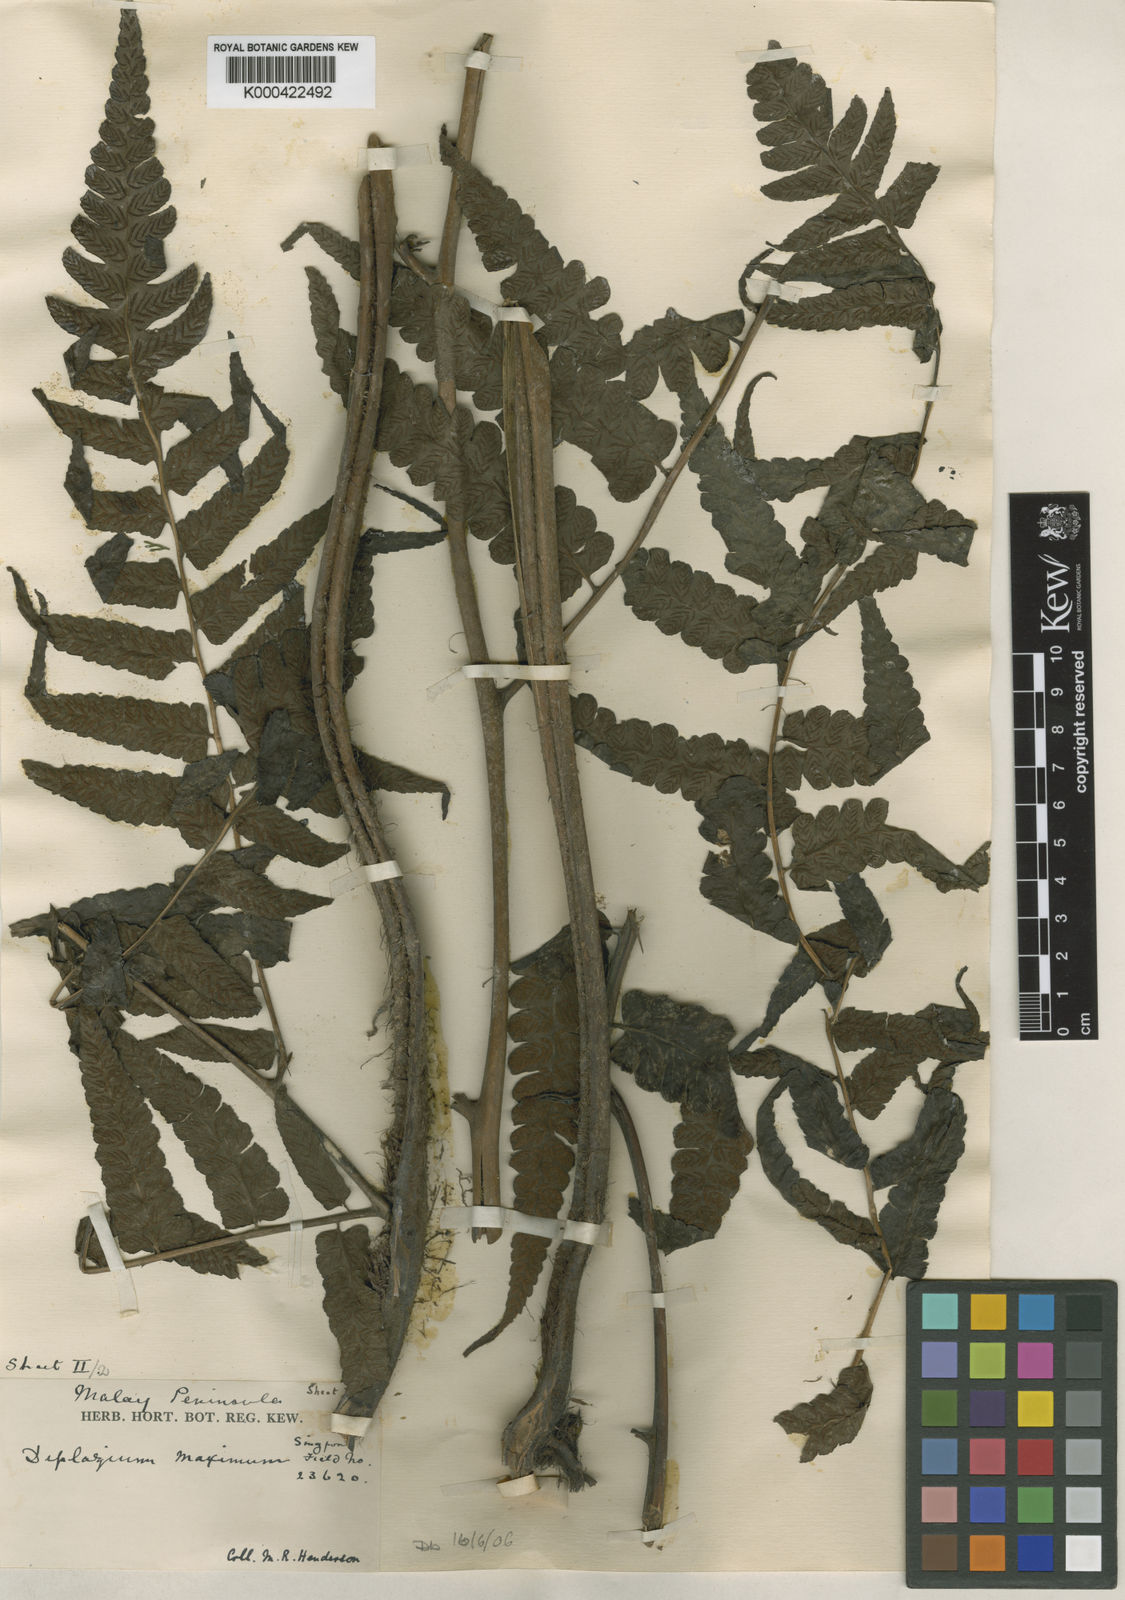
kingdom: Plantae
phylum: Tracheophyta
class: Polypodiopsida
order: Polypodiales
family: Athyriaceae
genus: Diplazium
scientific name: Diplazium dilatatum
